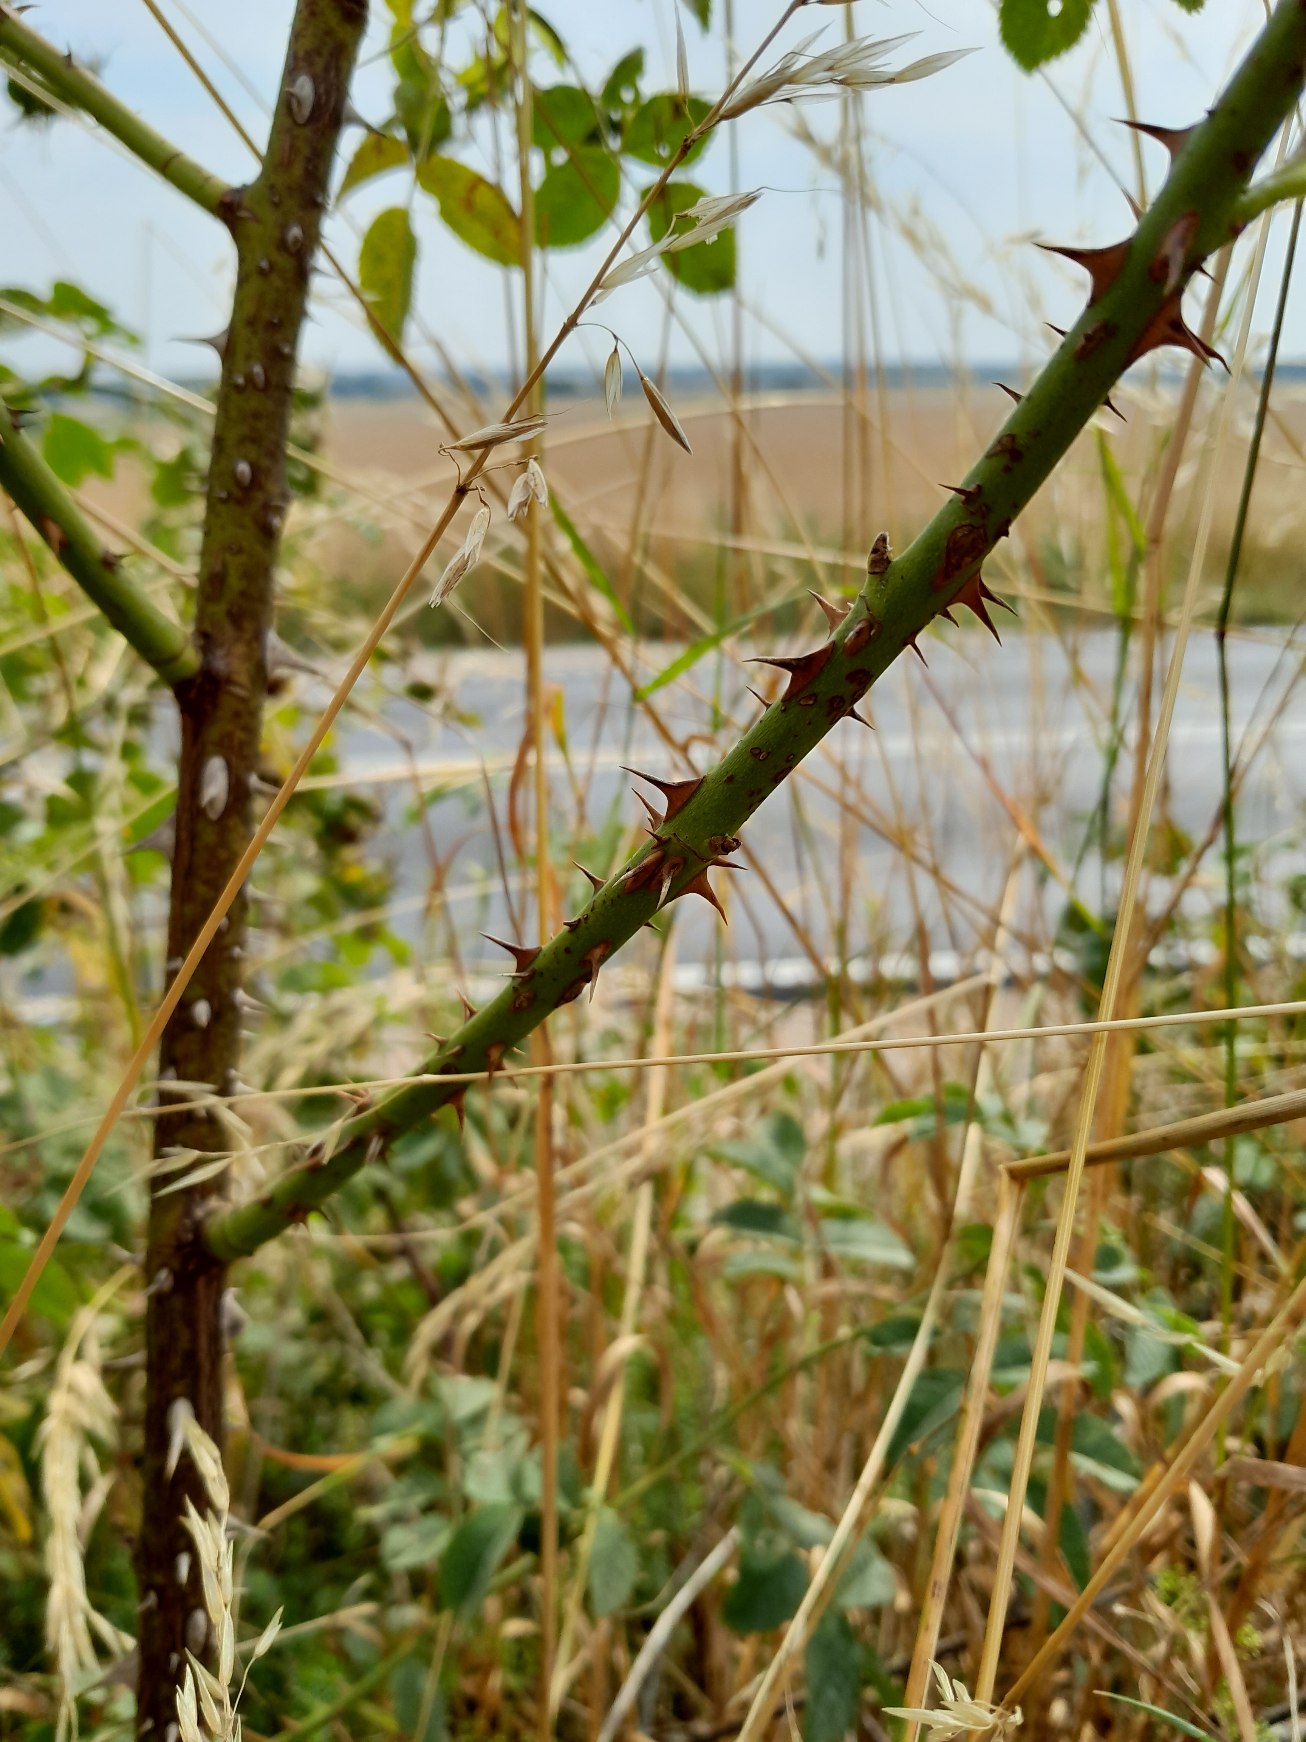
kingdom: Plantae
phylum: Tracheophyta
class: Magnoliopsida
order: Rosales
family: Rosaceae
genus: Rosa
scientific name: Rosa tomentosa
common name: Langstilket filt-rose
